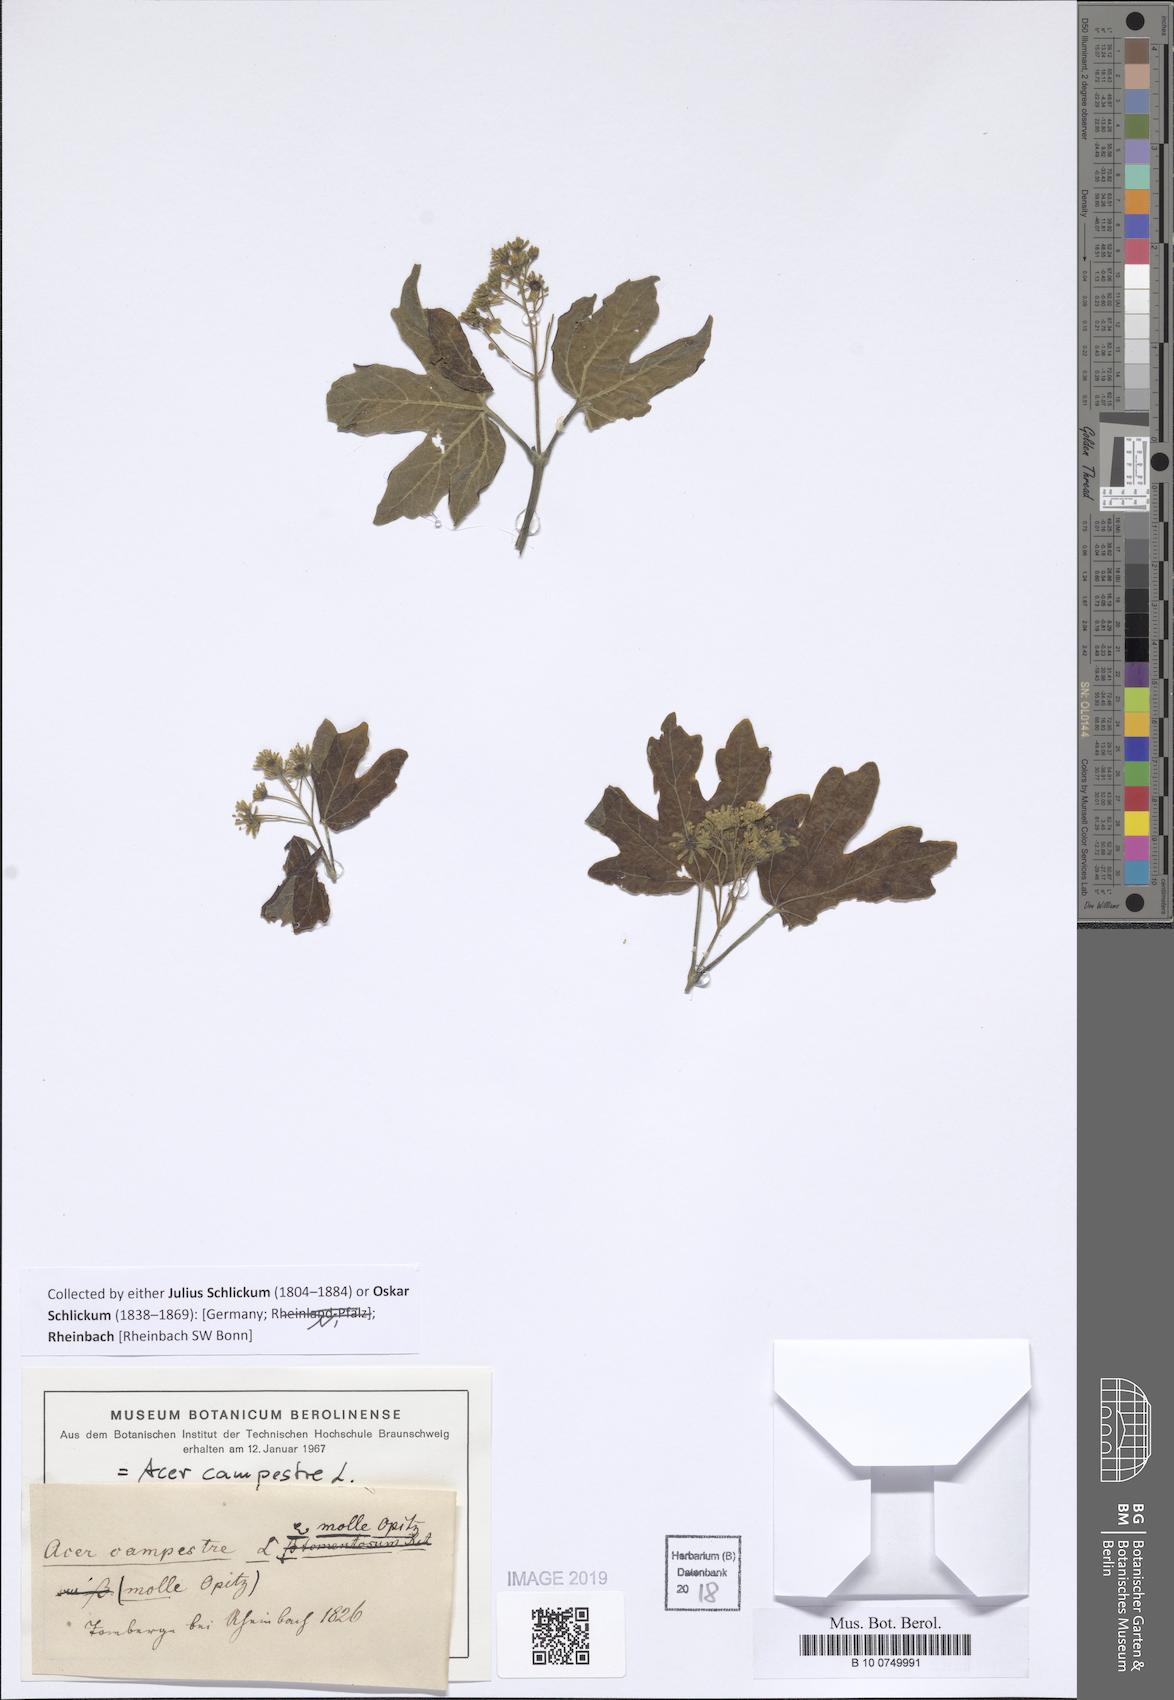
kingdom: Plantae
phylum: Tracheophyta
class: Magnoliopsida
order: Sapindales
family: Sapindaceae
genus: Acer
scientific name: Acer campestre
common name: Field maple
